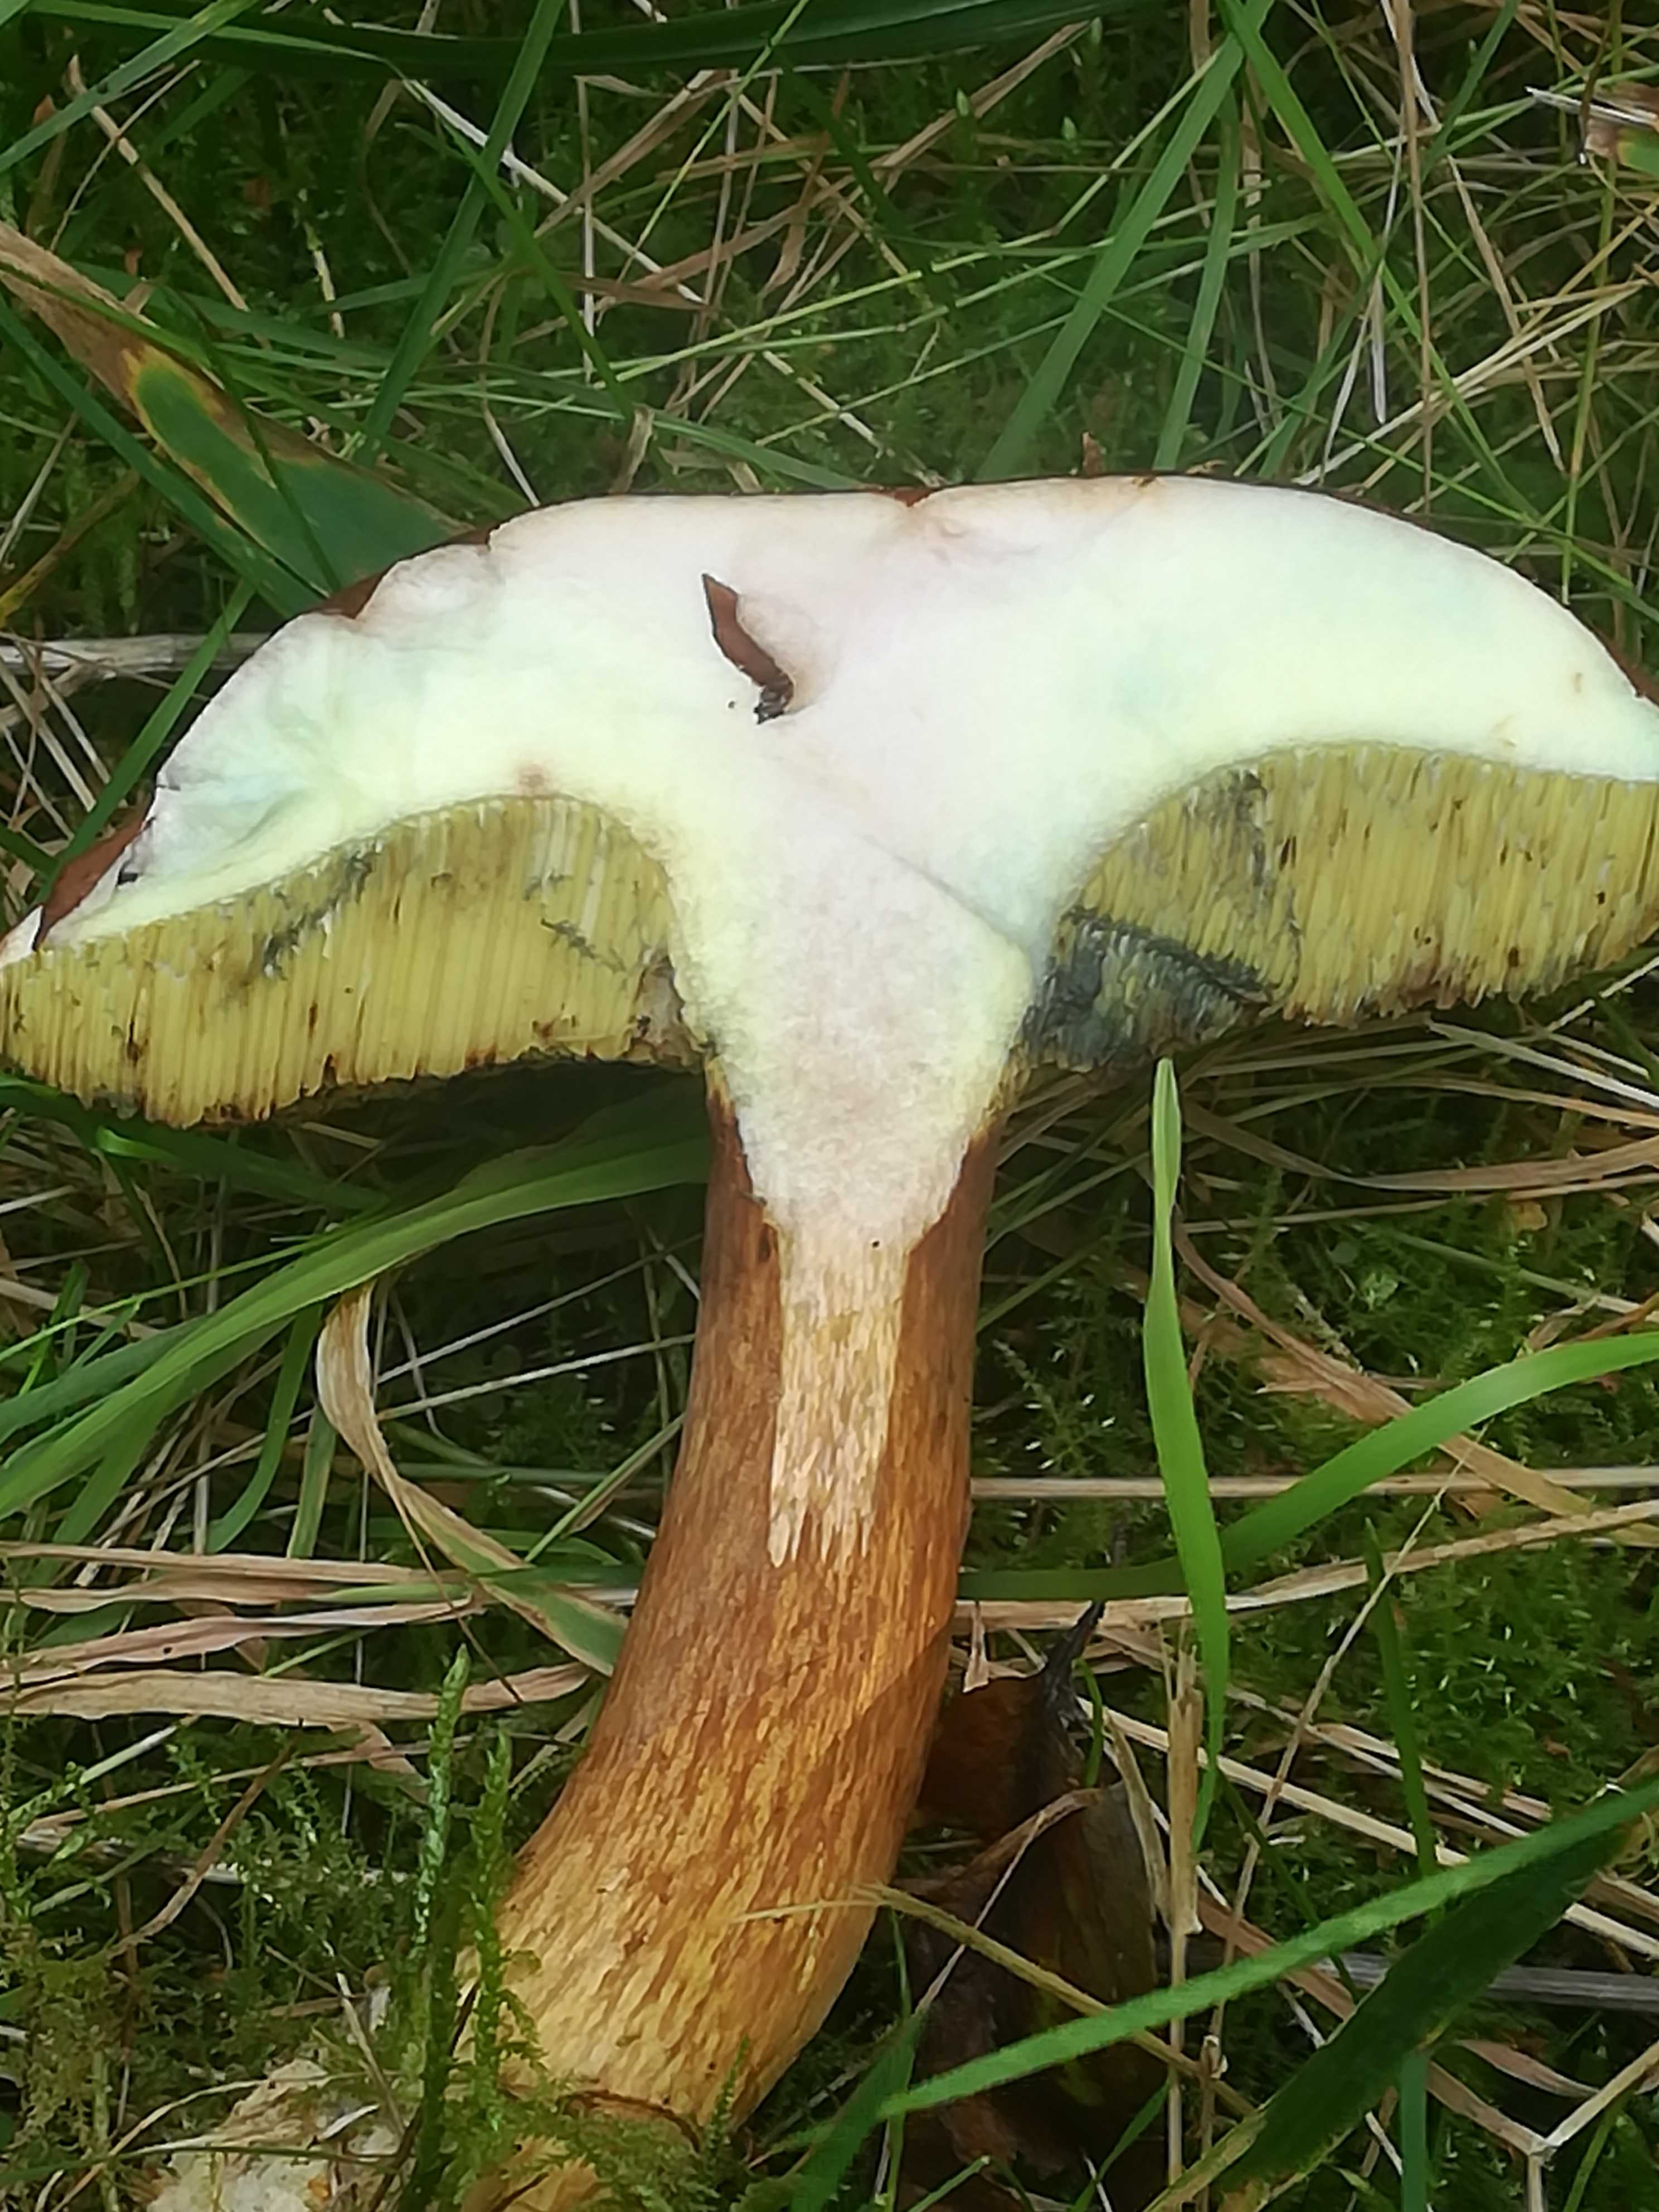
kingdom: Fungi
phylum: Basidiomycota
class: Agaricomycetes
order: Boletales
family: Boletaceae
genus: Imleria
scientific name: Imleria badia
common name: brunstokket rørhat
